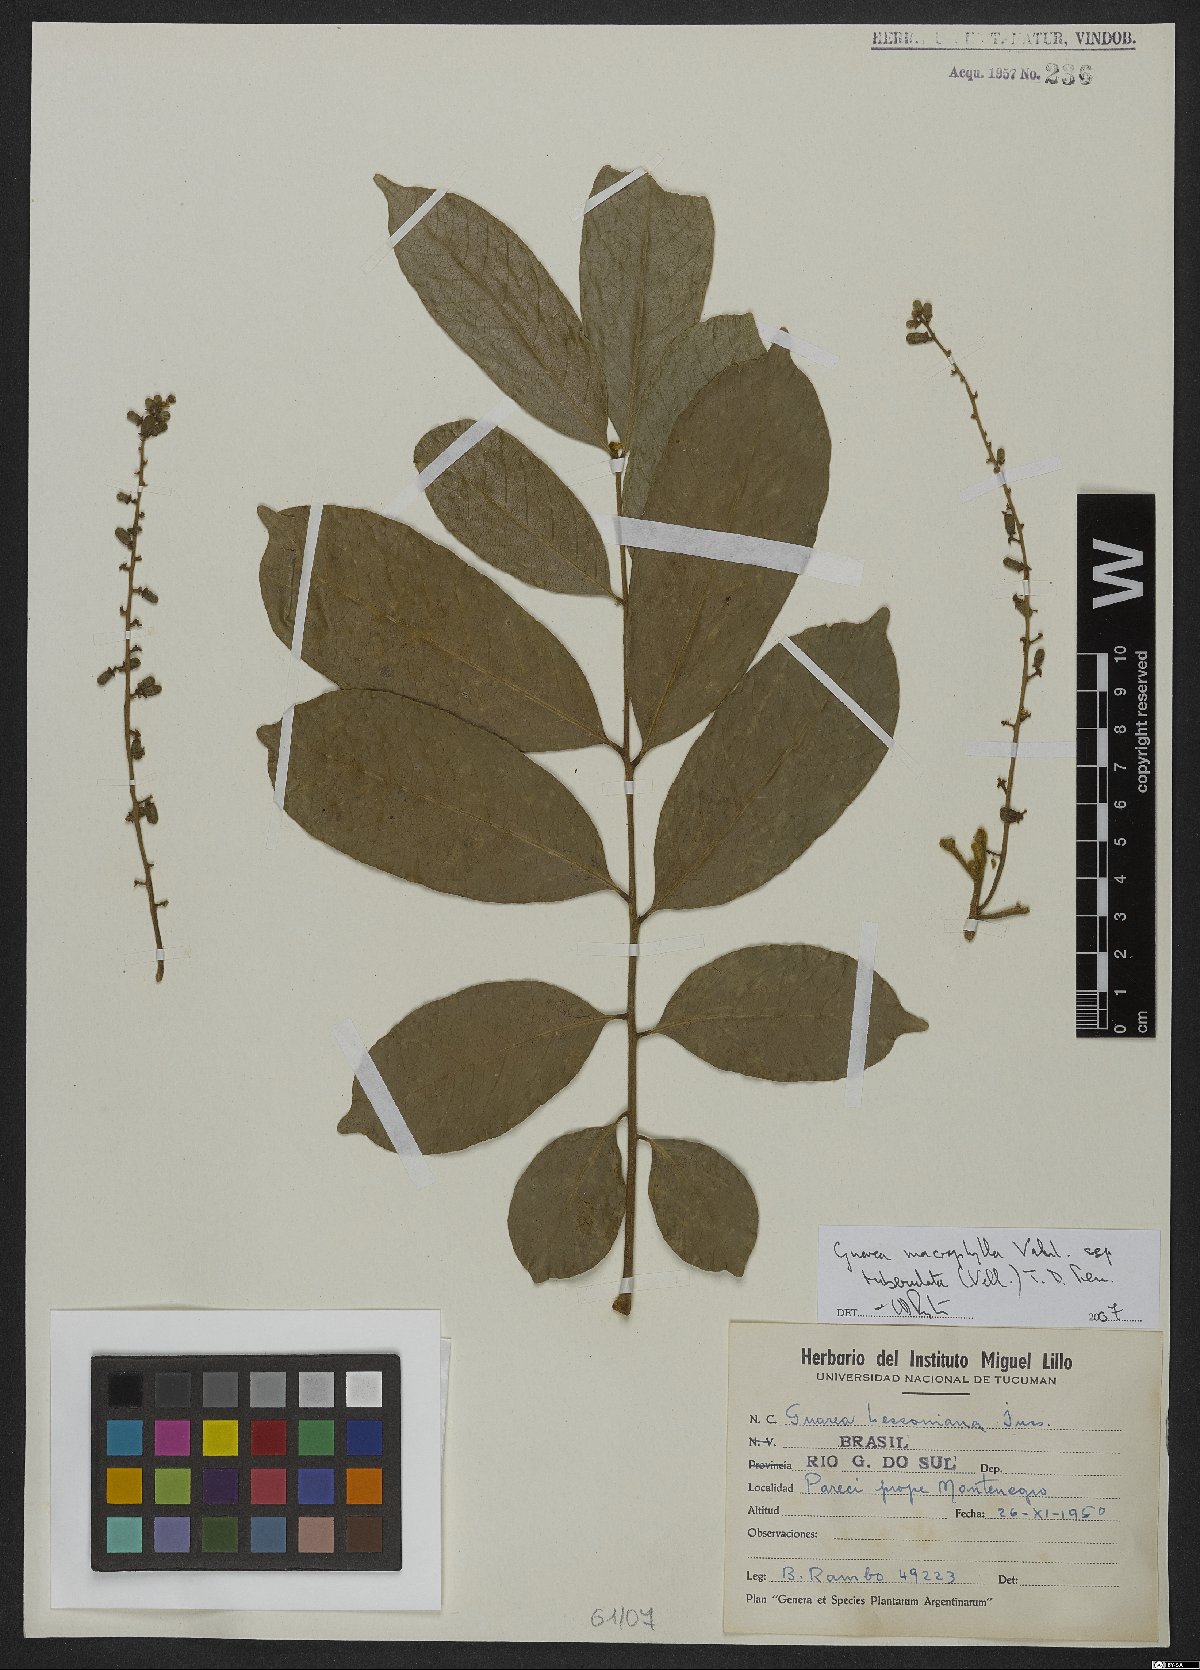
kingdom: Plantae
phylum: Tracheophyta
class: Magnoliopsida
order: Sapindales
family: Meliaceae
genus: Guarea
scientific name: Guarea macrophylla
